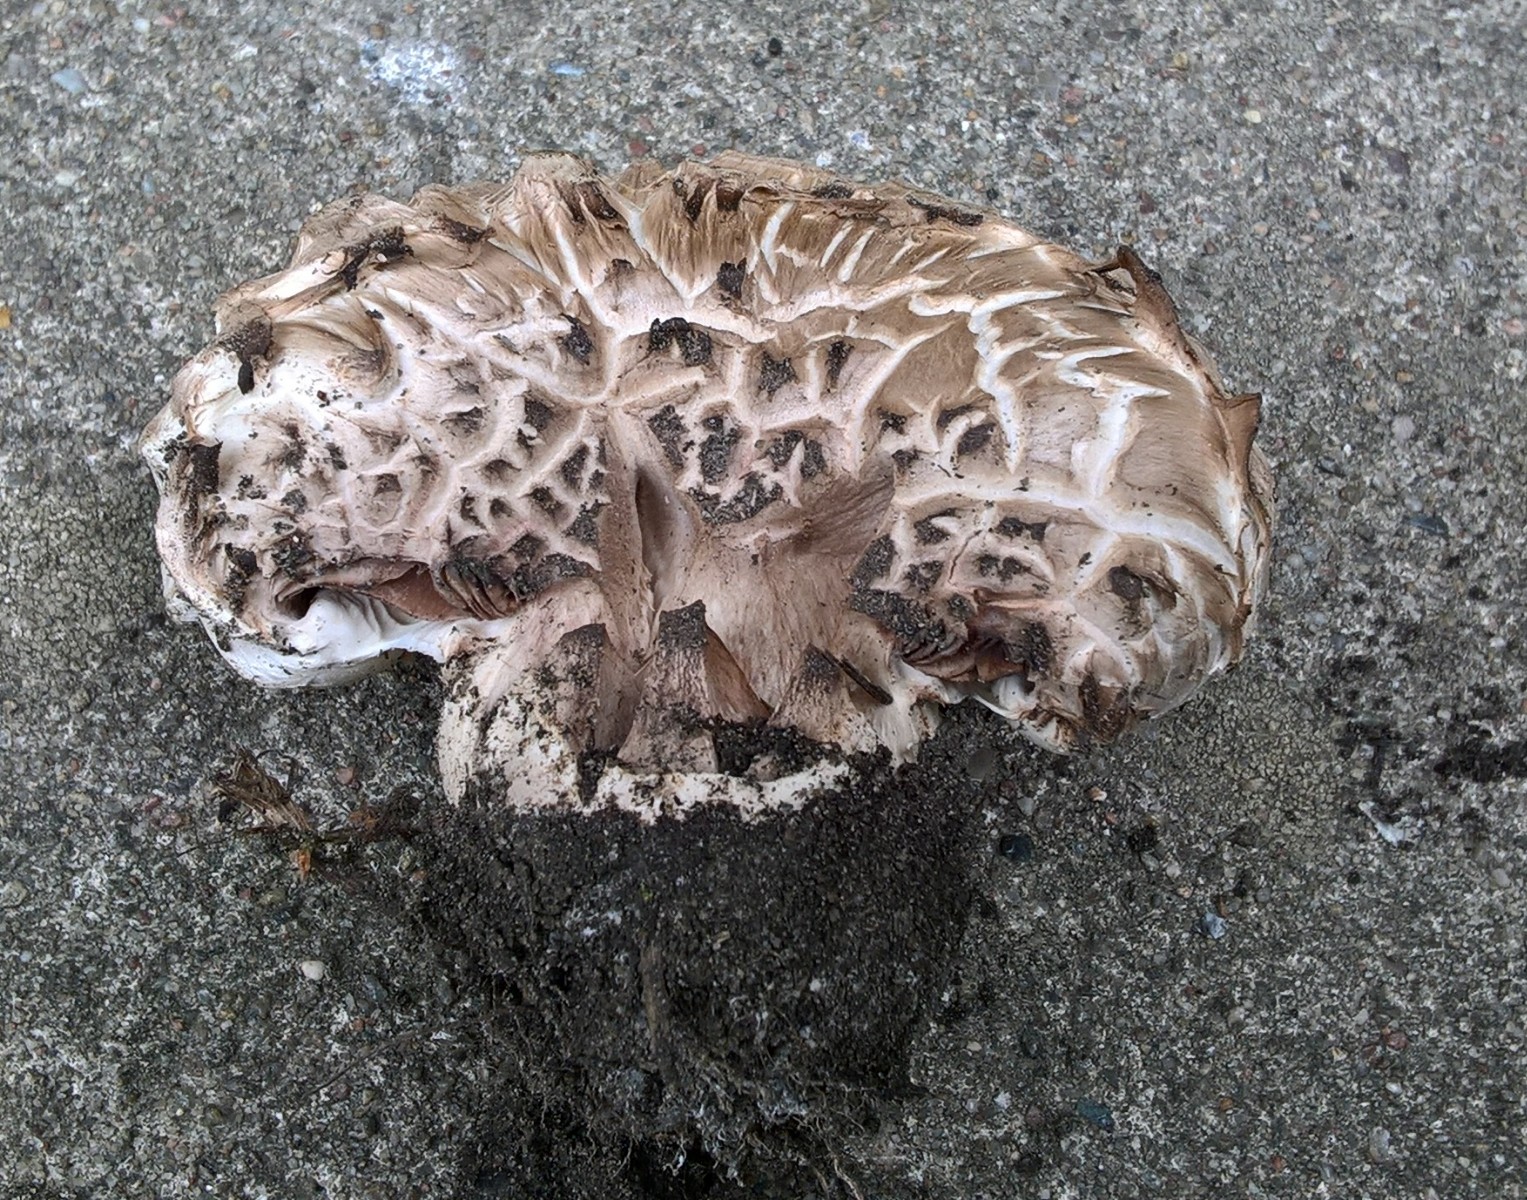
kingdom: Fungi
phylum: Basidiomycota
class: Agaricomycetes
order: Agaricales
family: Agaricaceae
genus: Agaricus
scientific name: Agaricus bernardii
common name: strandengs-champignon
